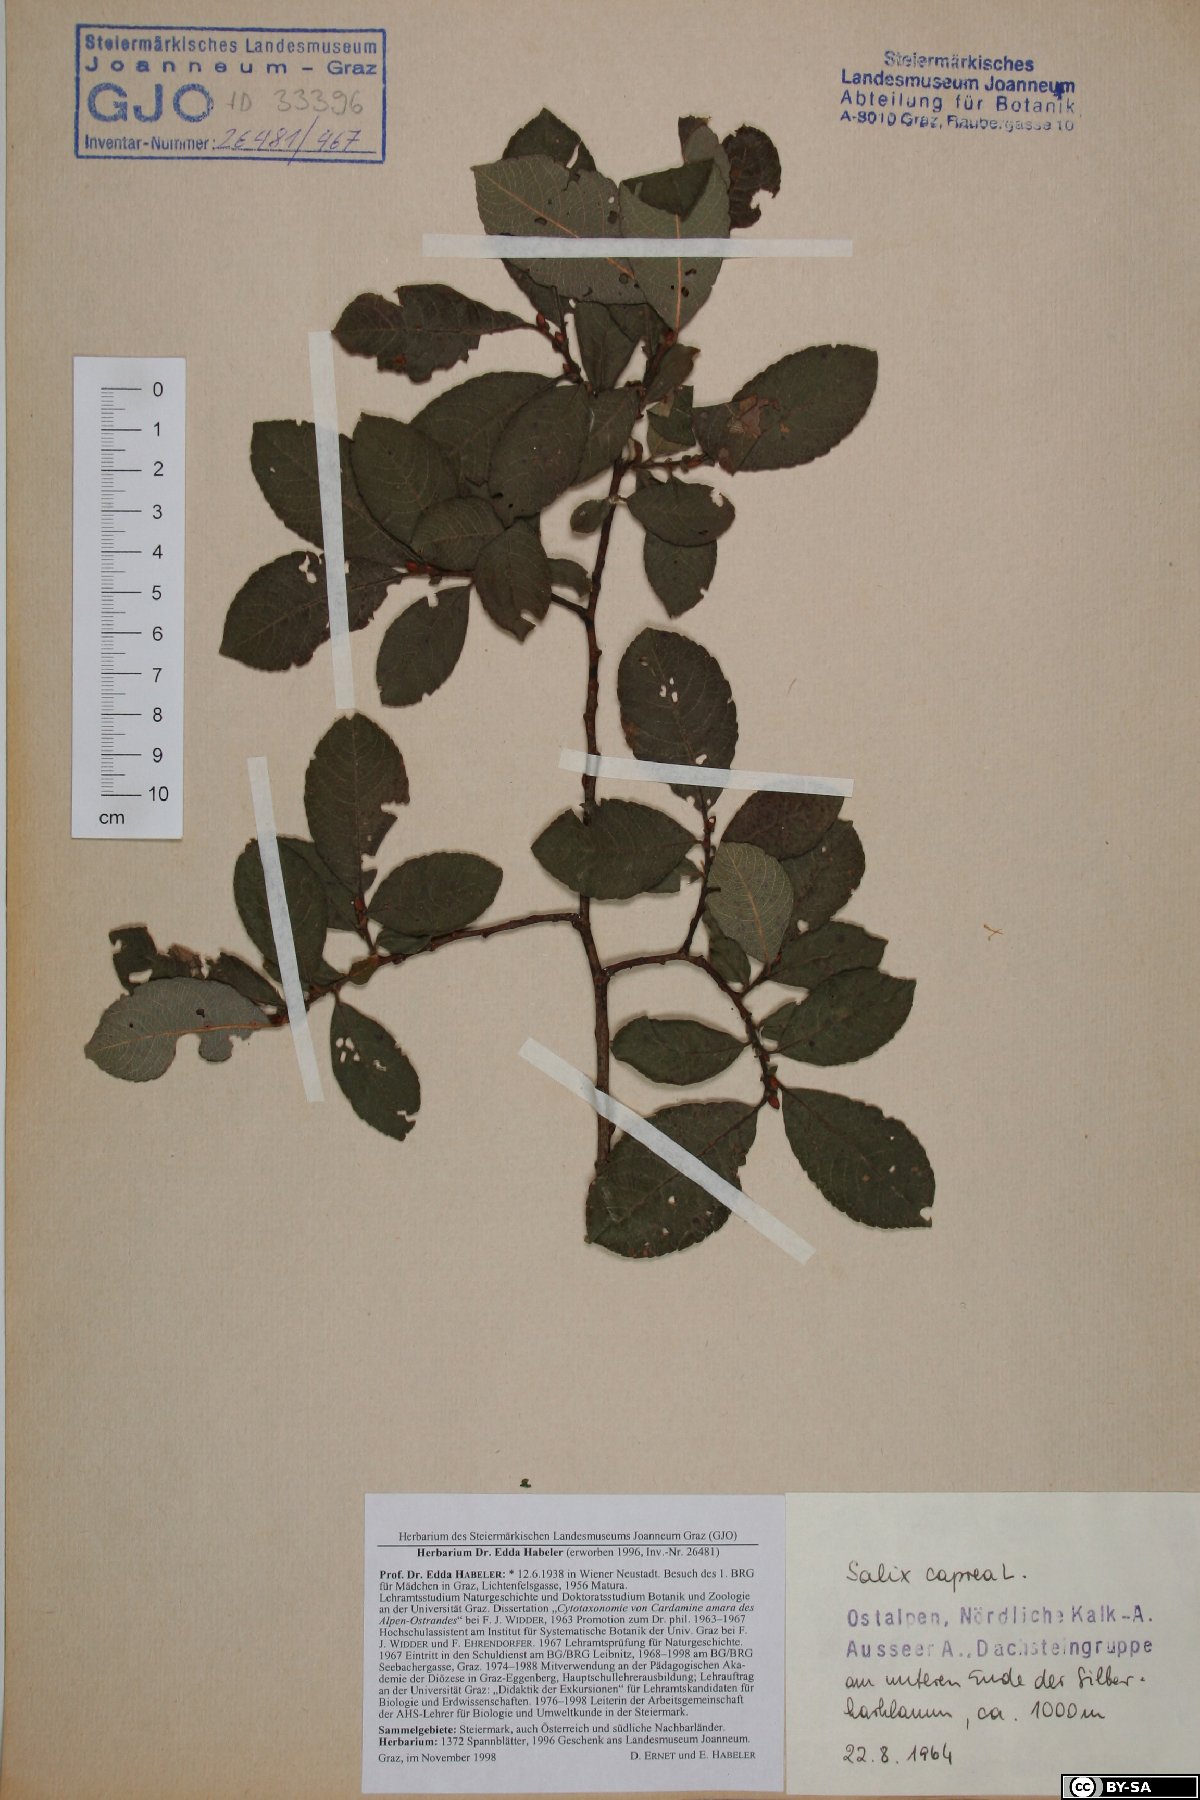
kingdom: Plantae
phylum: Tracheophyta
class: Magnoliopsida
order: Malpighiales
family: Salicaceae
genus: Salix
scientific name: Salix caprea
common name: Goat willow
